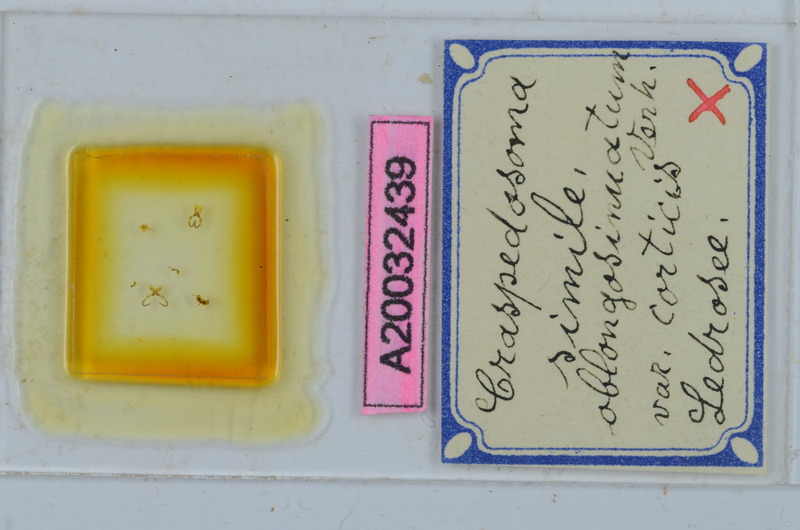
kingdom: Animalia
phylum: Arthropoda
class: Diplopoda
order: Chordeumatida
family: Craspedosomatidae
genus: Craspedosoma
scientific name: Craspedosoma rawlinsii
